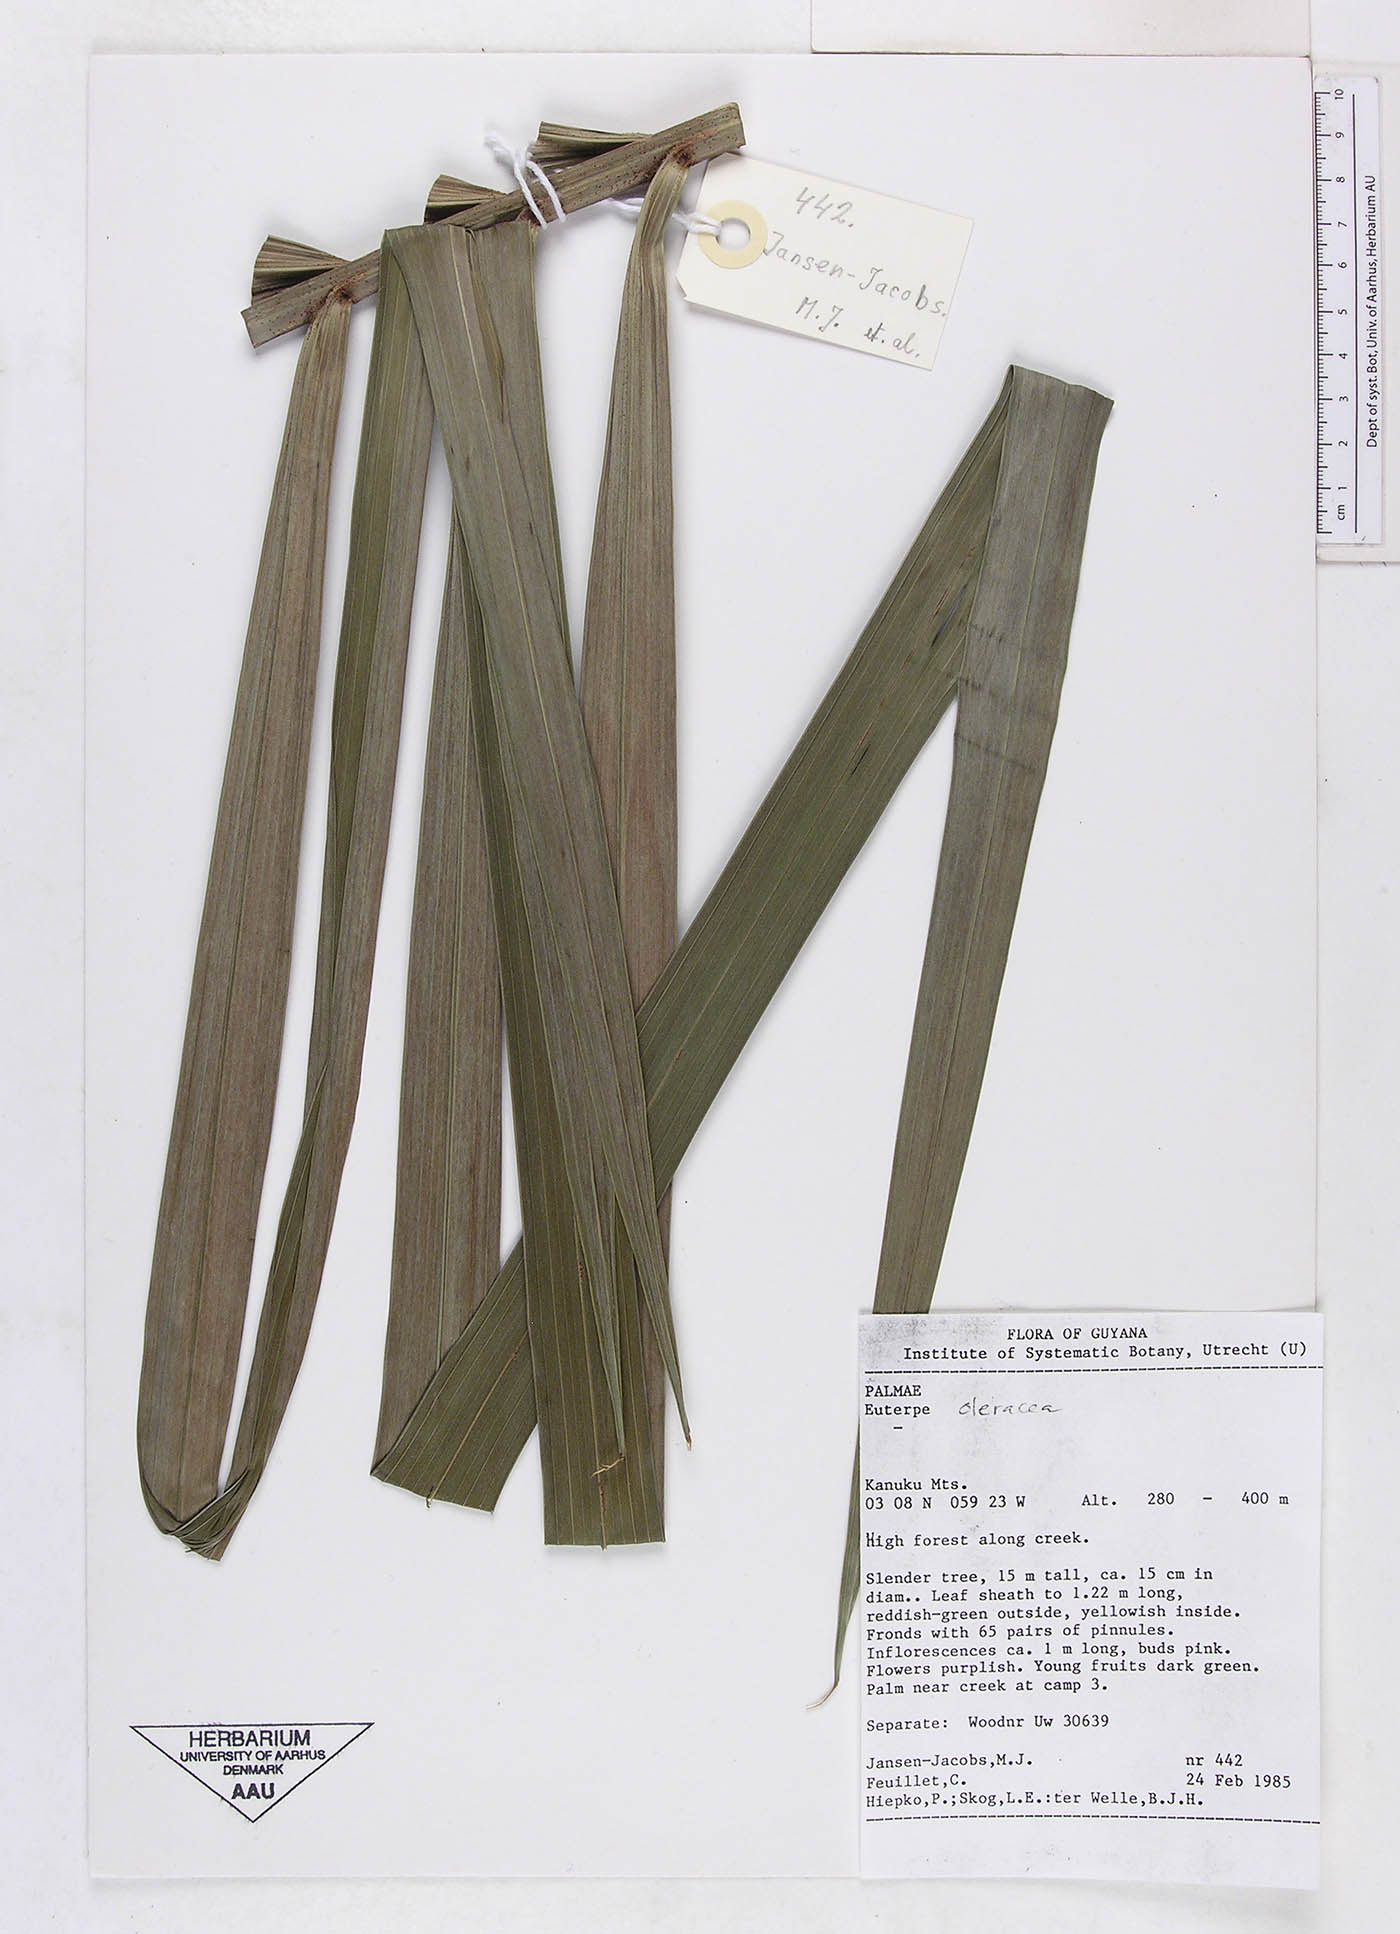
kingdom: Plantae
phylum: Tracheophyta
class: Liliopsida
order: Arecales
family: Arecaceae
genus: Euterpe
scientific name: Euterpe oleracea
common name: Assai palm
